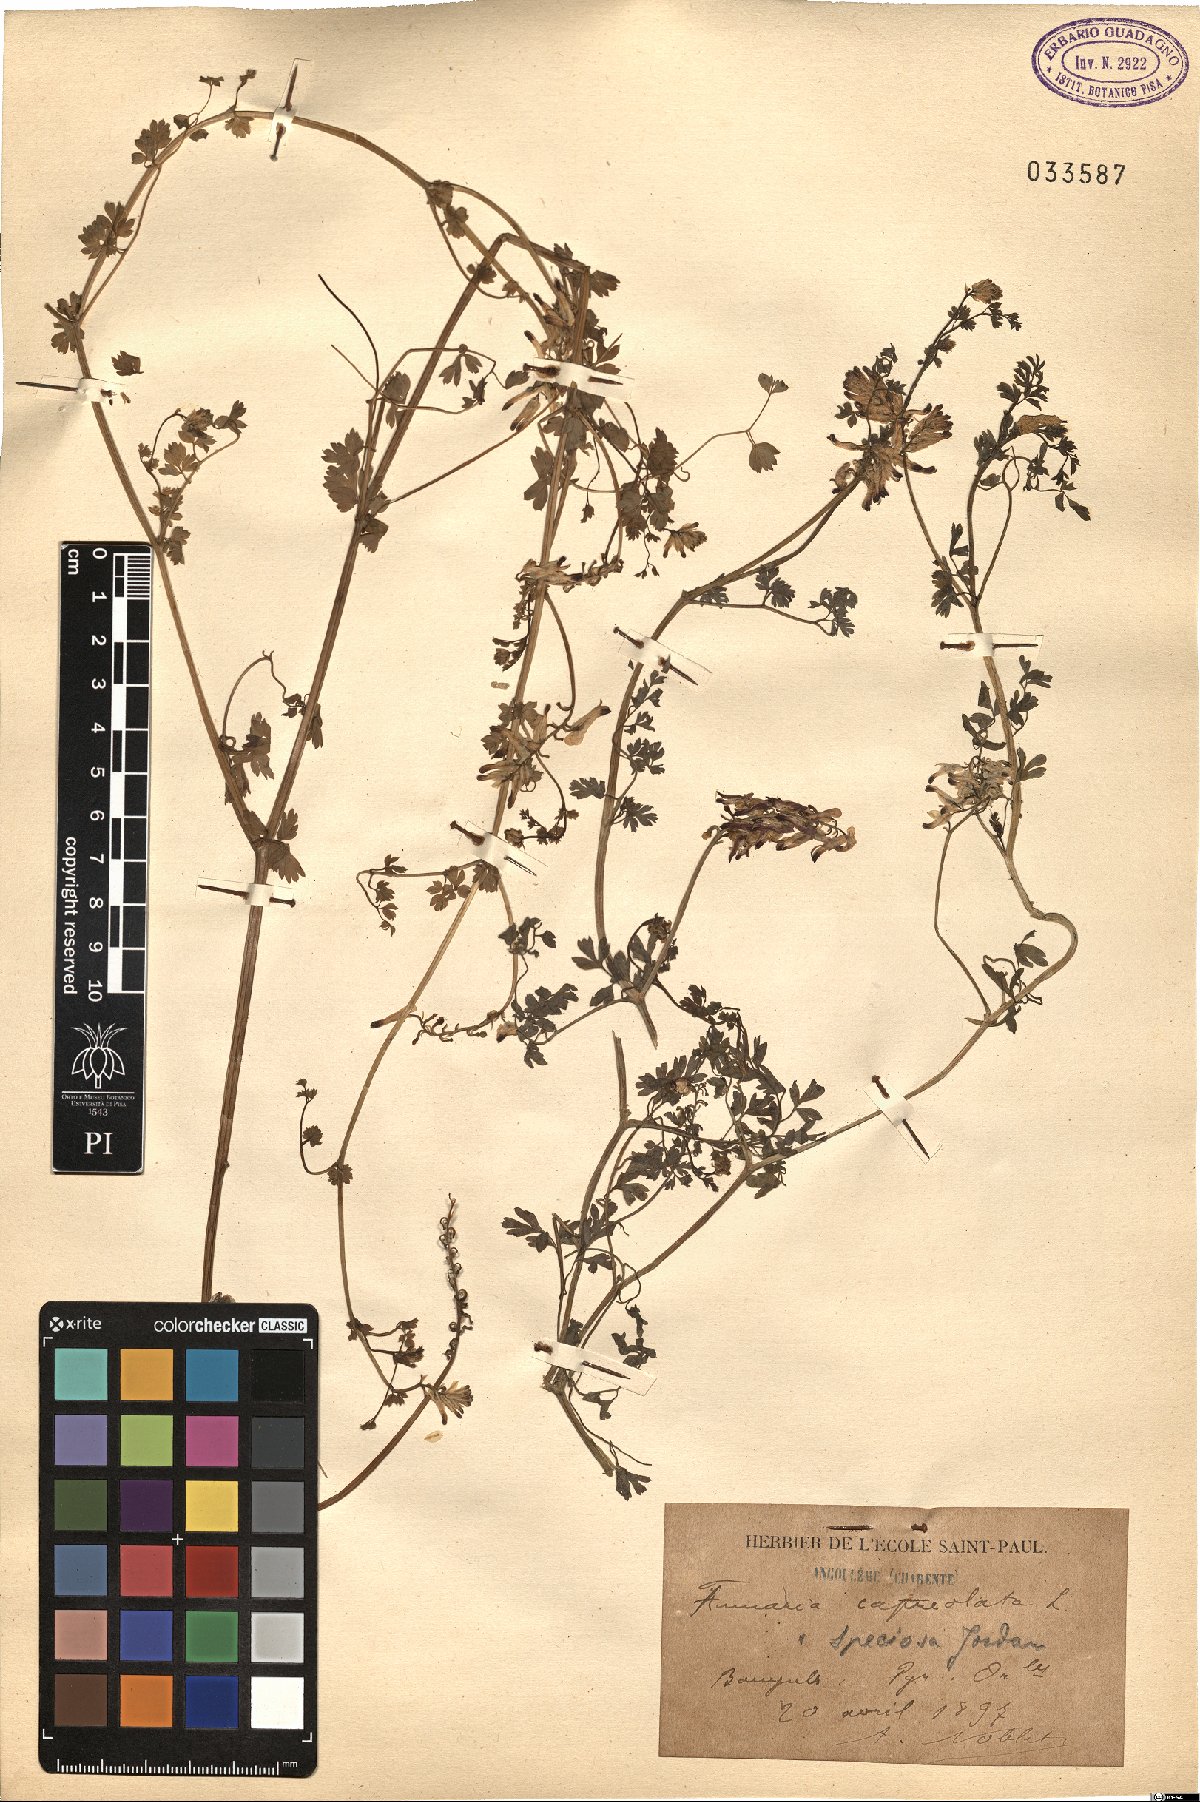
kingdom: Plantae
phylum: Tracheophyta
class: Magnoliopsida
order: Ranunculales
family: Papaveraceae
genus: Fumaria
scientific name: Fumaria capreolata
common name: White ramping-fumitory
